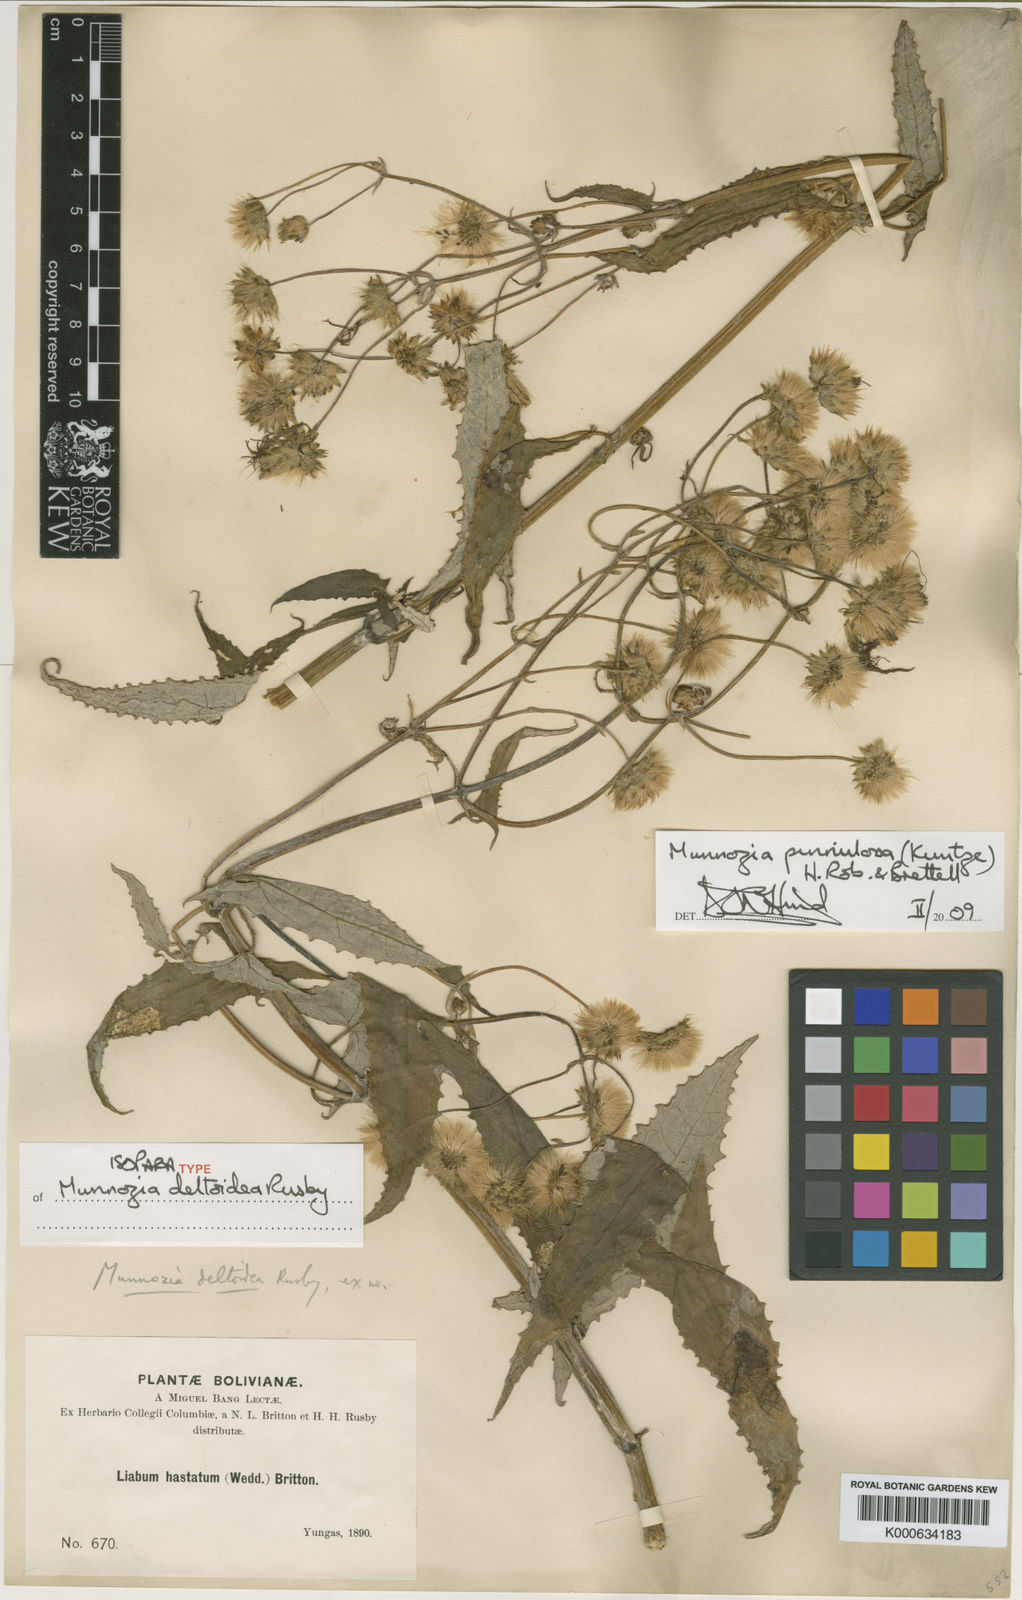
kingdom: Plantae
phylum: Tracheophyta
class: Magnoliopsida
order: Asterales
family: Asteraceae
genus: Munnozia
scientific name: Munnozia pinnulosa
